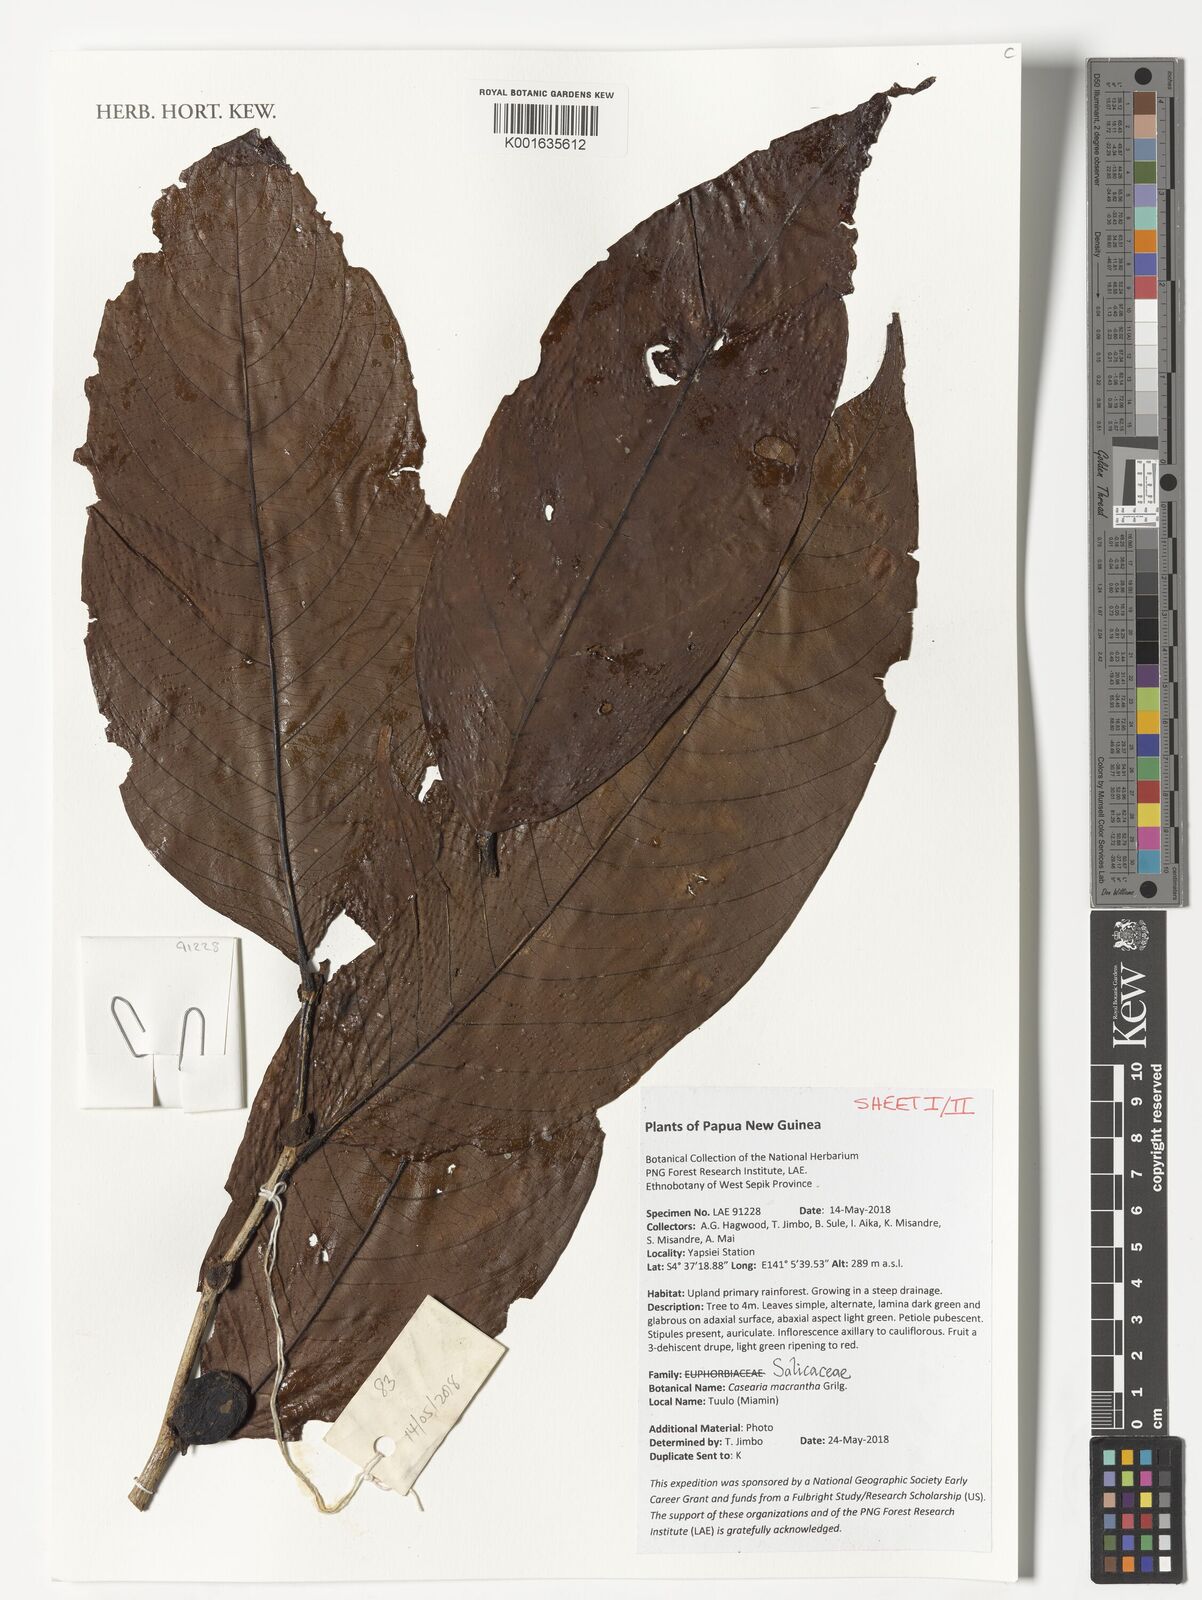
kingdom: Plantae
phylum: Tracheophyta
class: Magnoliopsida
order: Malpighiales
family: Salicaceae
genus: Casearia
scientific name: Casearia macrantha
